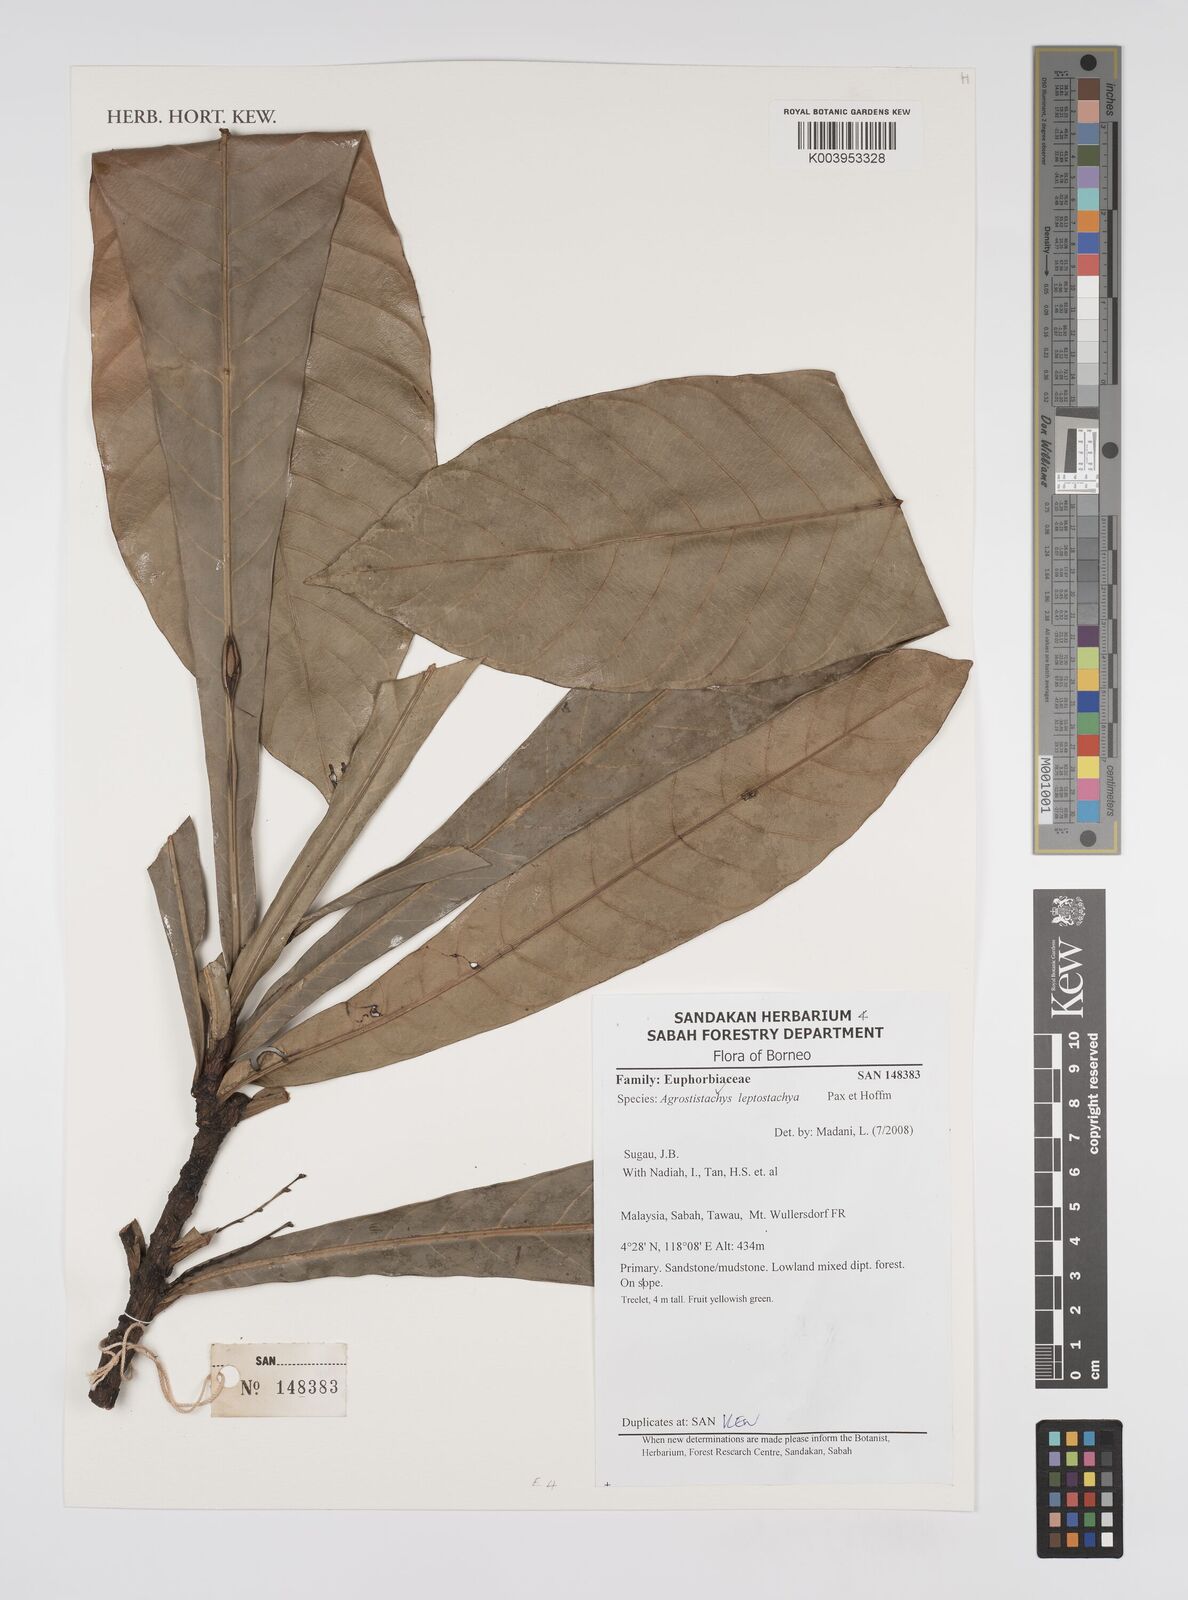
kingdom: Plantae
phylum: Tracheophyta
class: Magnoliopsida
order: Malpighiales
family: Euphorbiaceae
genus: Agrostistachys
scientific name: Agrostistachys borneensis
